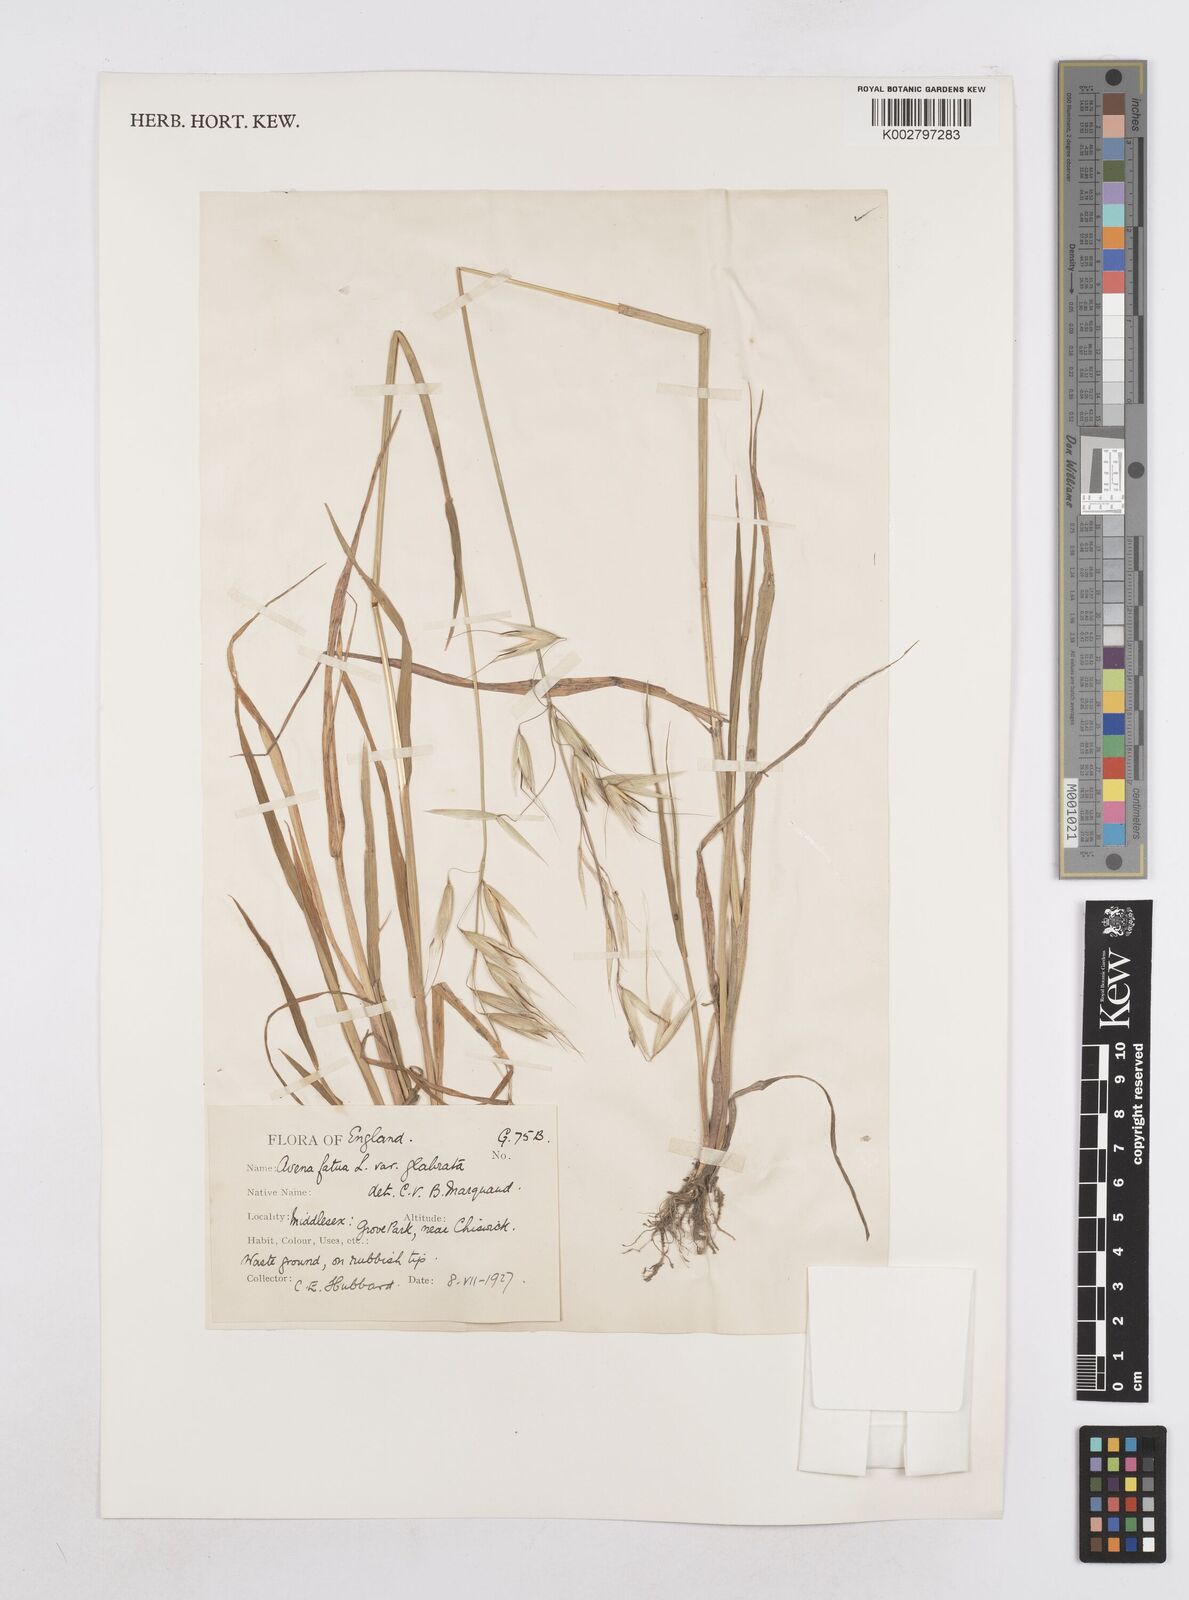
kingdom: Plantae
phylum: Tracheophyta
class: Liliopsida
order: Poales
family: Poaceae
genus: Avena
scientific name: Avena fatua
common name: Wild oat
